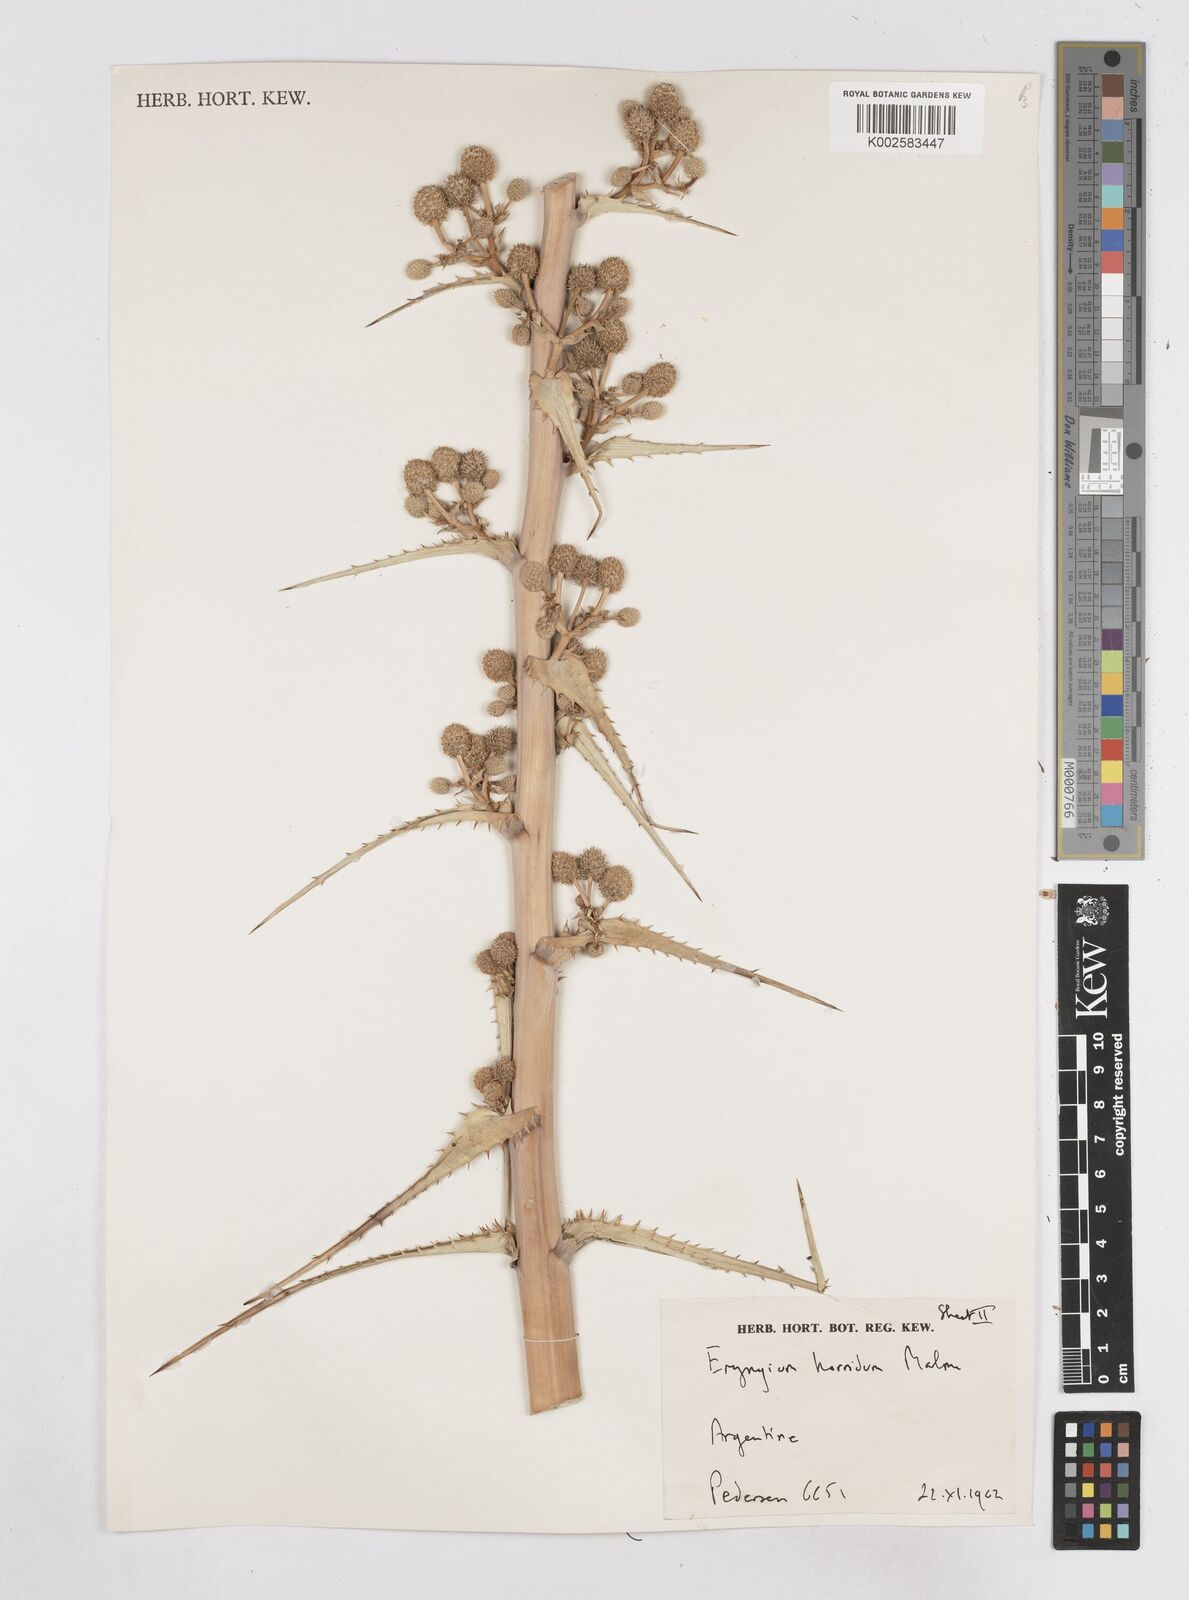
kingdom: Plantae
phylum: Tracheophyta
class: Magnoliopsida
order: Apiales
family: Apiaceae
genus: Eryngium
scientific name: Eryngium horridum
